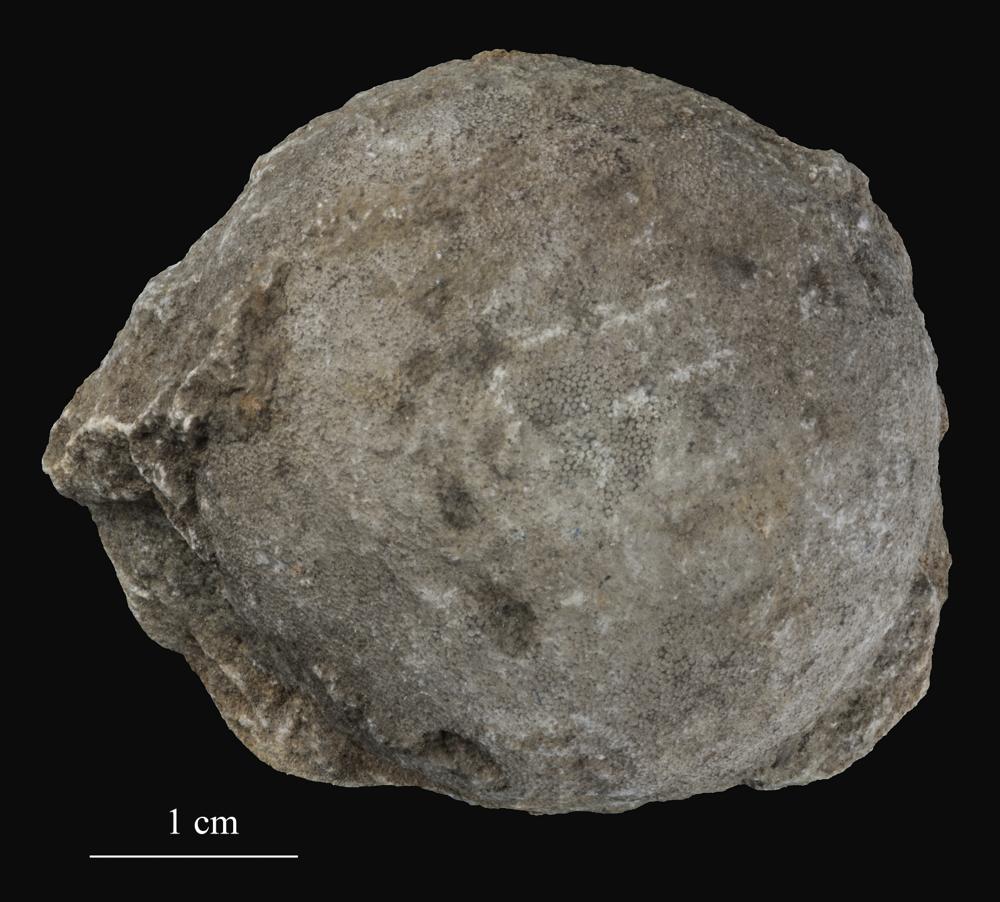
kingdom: Animalia
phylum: Bryozoa
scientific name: Bryozoa
